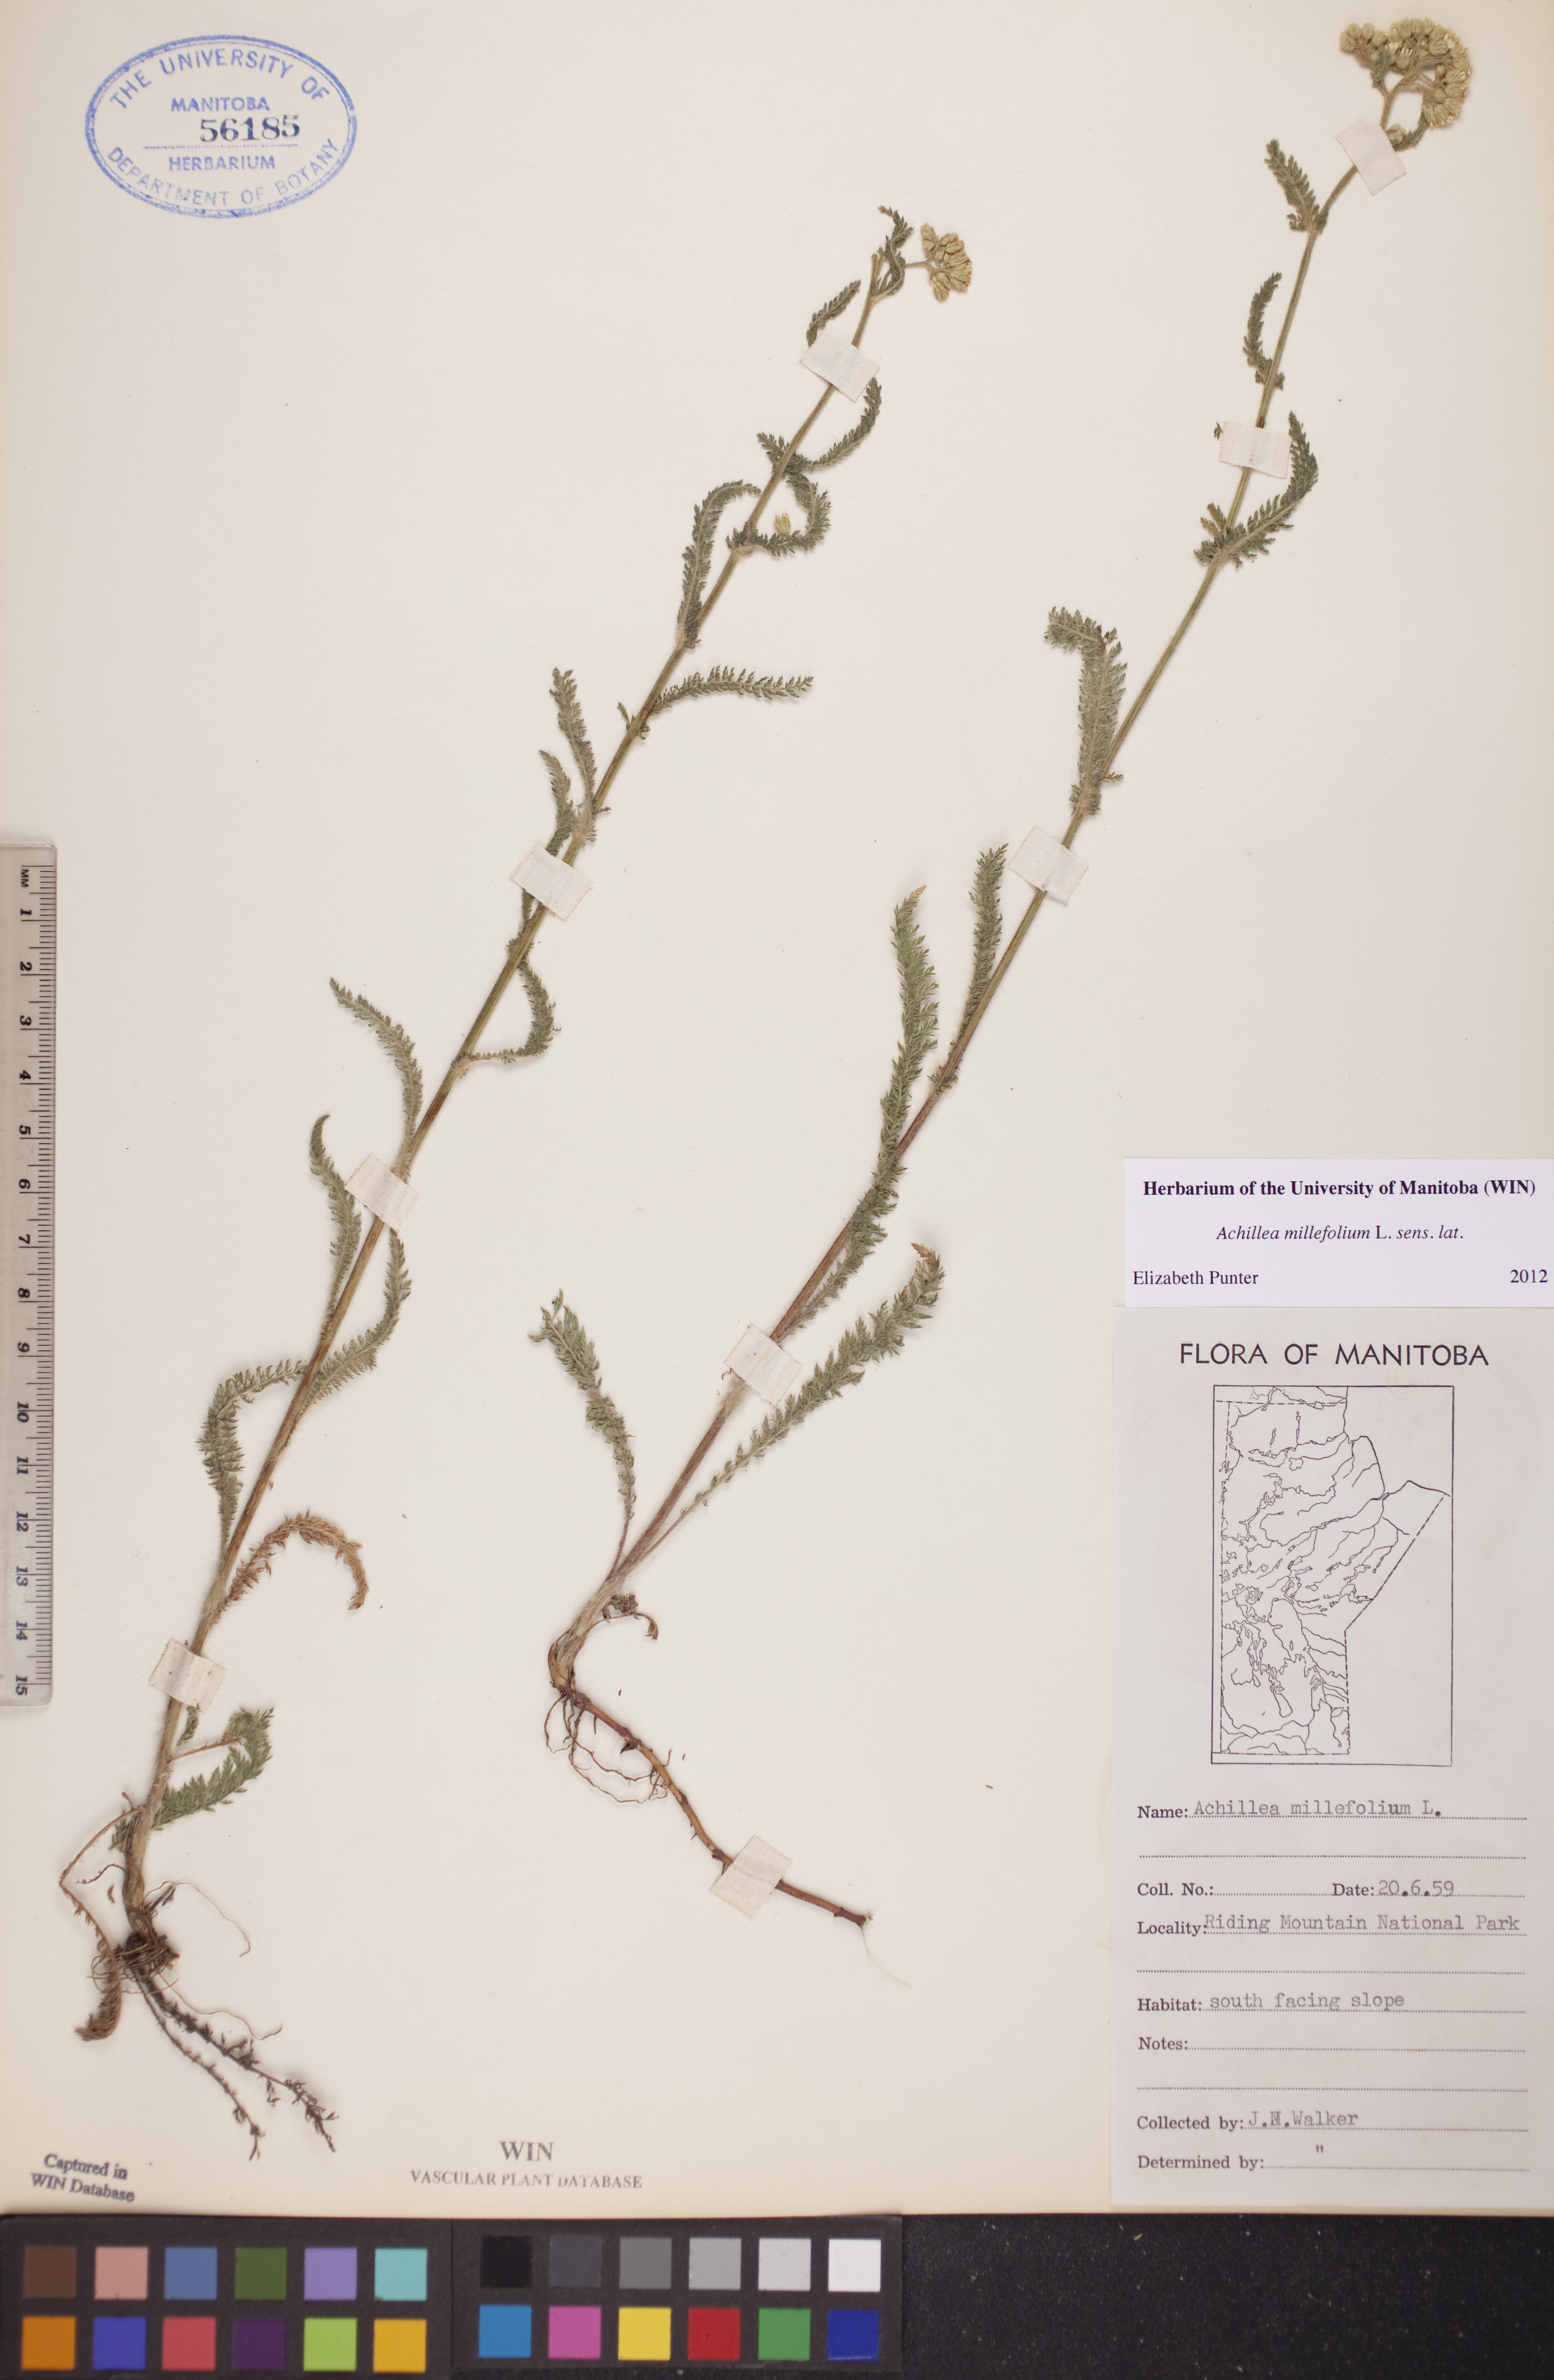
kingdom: Plantae
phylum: Tracheophyta
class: Magnoliopsida
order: Asterales
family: Asteraceae
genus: Achillea
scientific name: Achillea millefolium
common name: Yarrow
